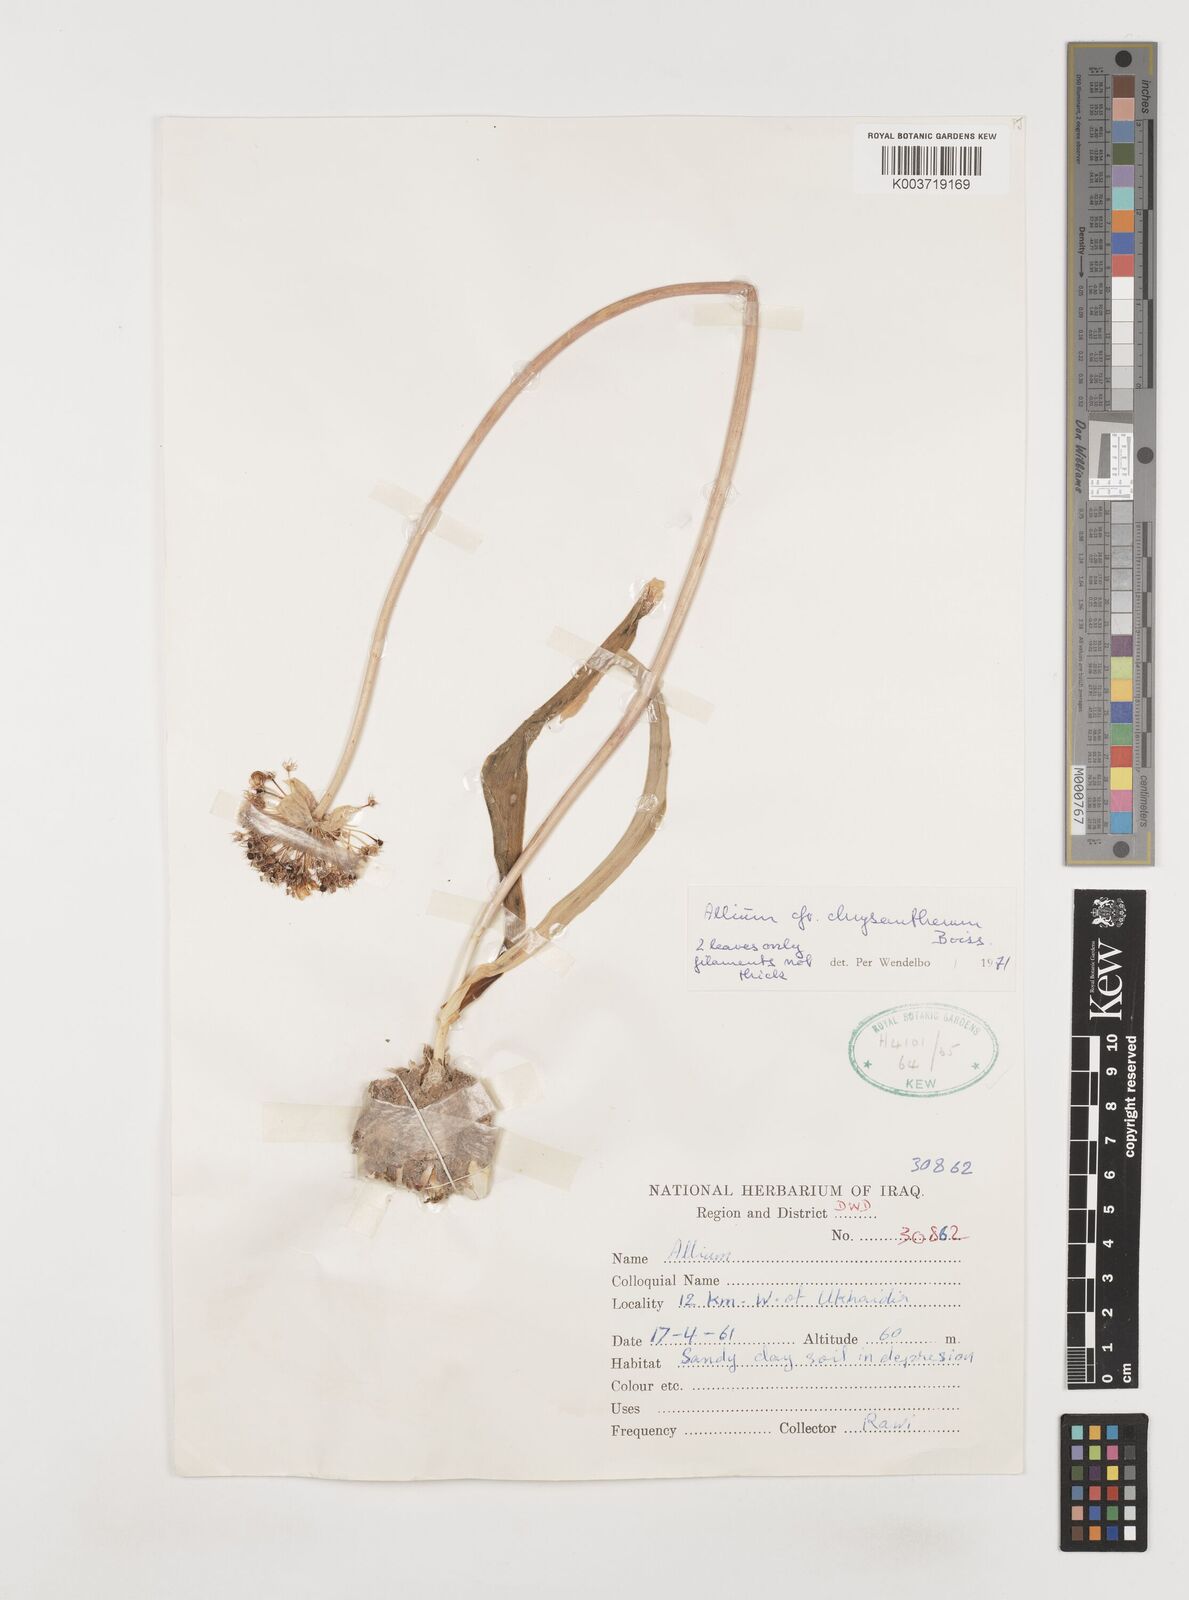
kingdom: Plantae
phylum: Tracheophyta
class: Liliopsida
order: Asparagales
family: Amaryllidaceae
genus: Allium
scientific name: Allium chrysantherum
